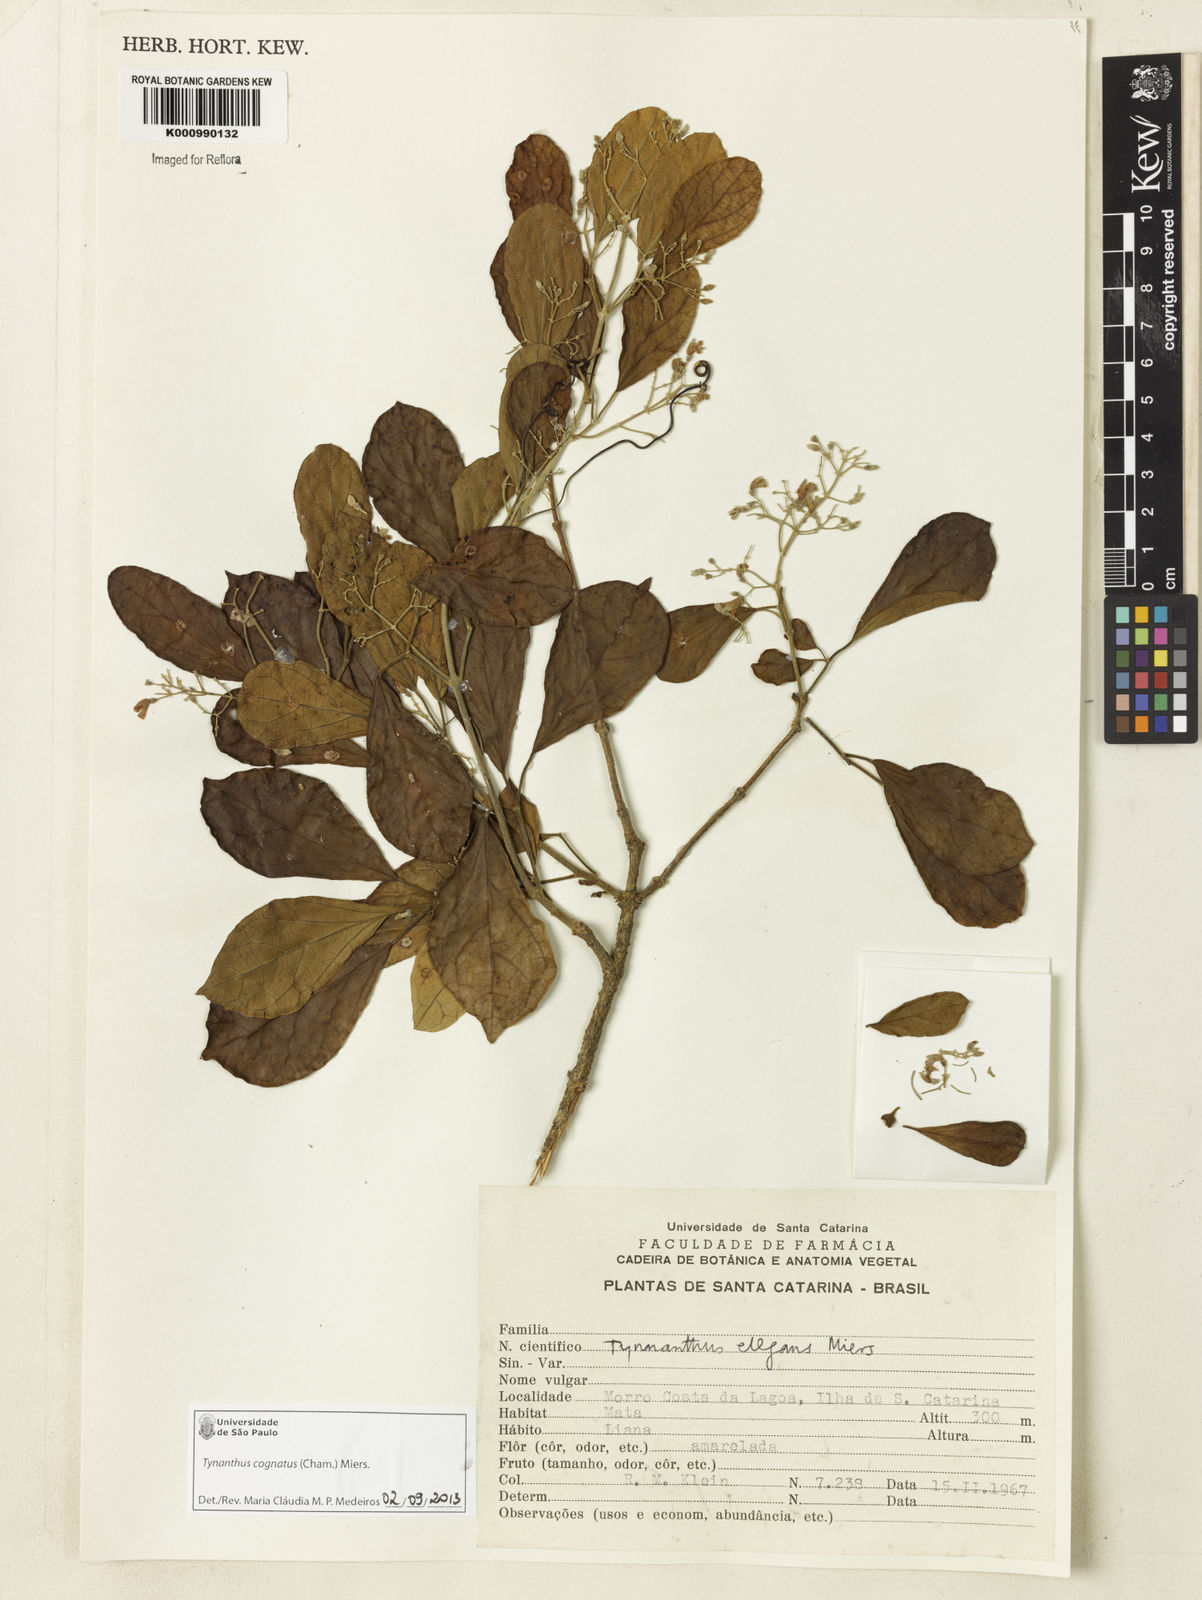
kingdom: Plantae
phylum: Tracheophyta
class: Magnoliopsida
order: Lamiales
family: Bignoniaceae
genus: Tynanthus
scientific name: Tynanthus cognatus
